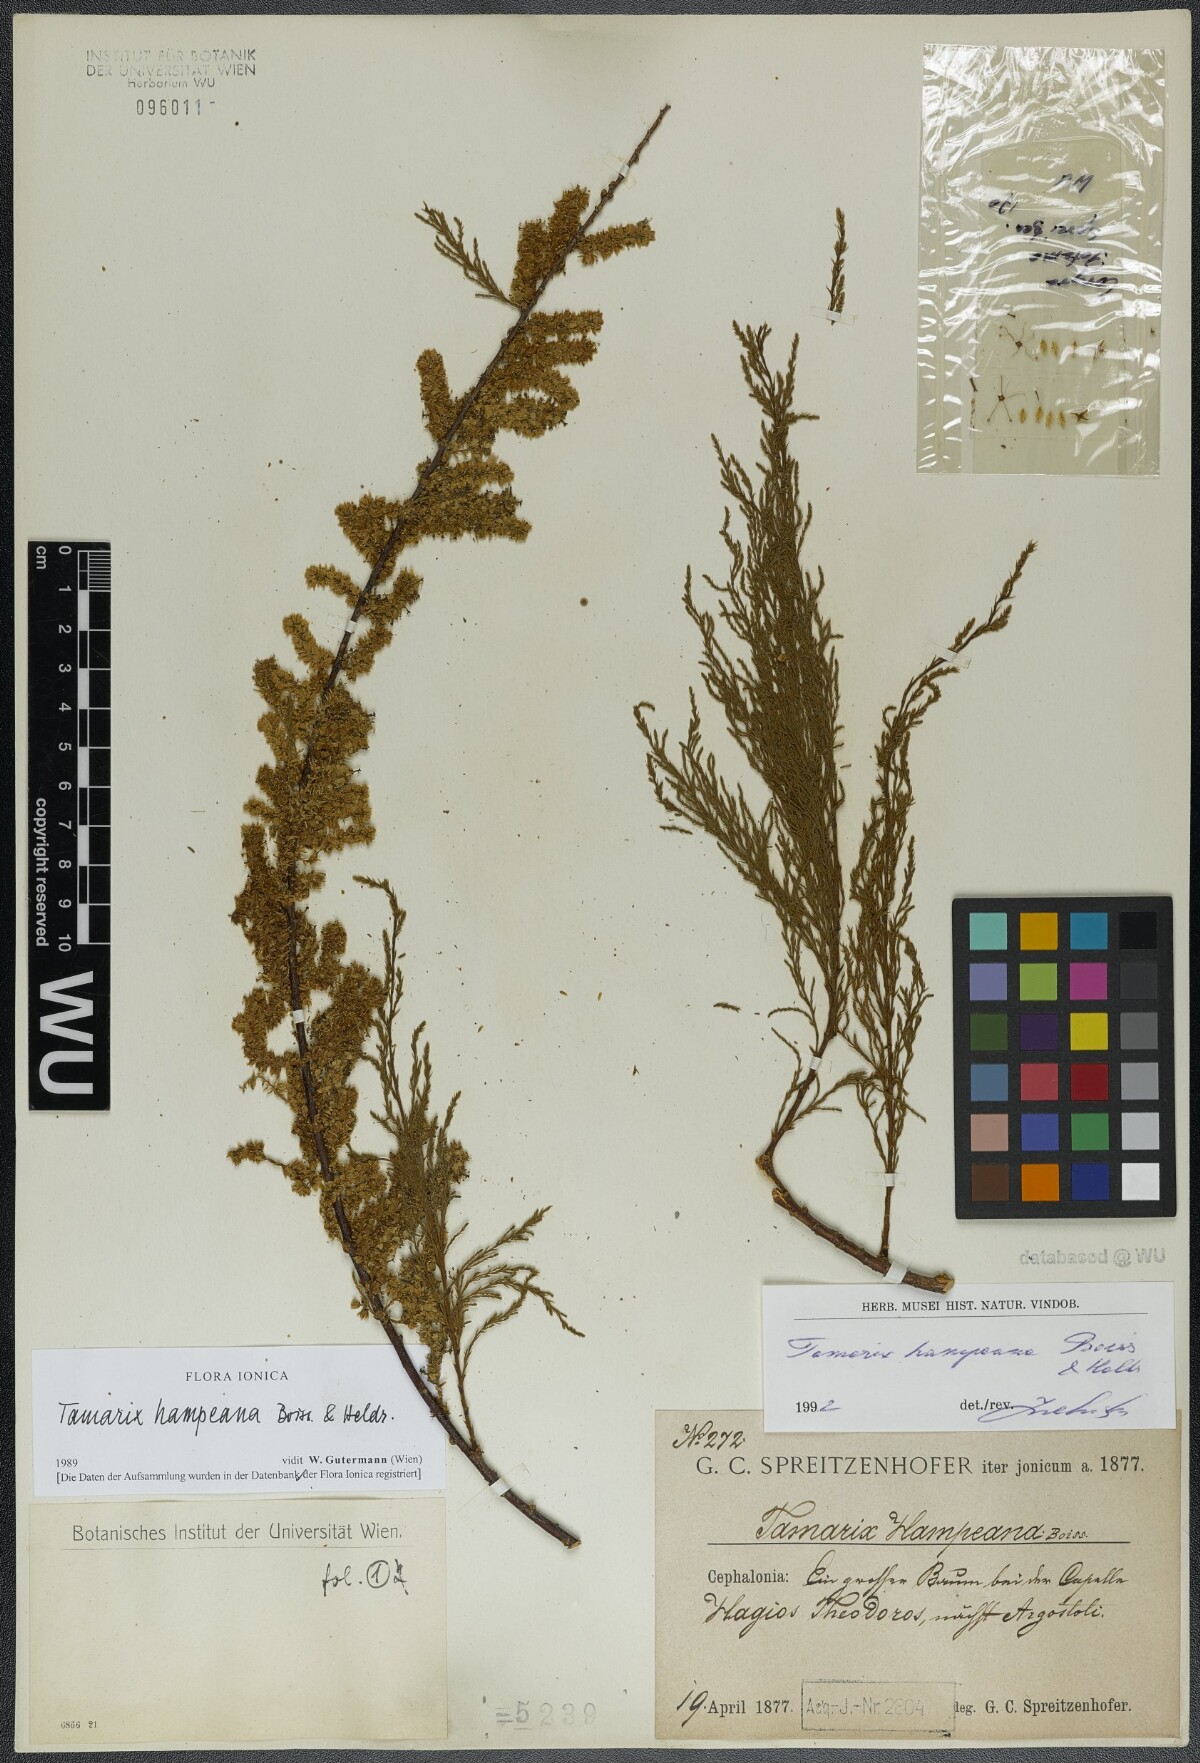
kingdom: Plantae
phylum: Tracheophyta
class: Magnoliopsida
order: Caryophyllales
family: Tamaricaceae
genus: Tamarix
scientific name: Tamarix hampeana
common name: Hampe’s tamarisk
